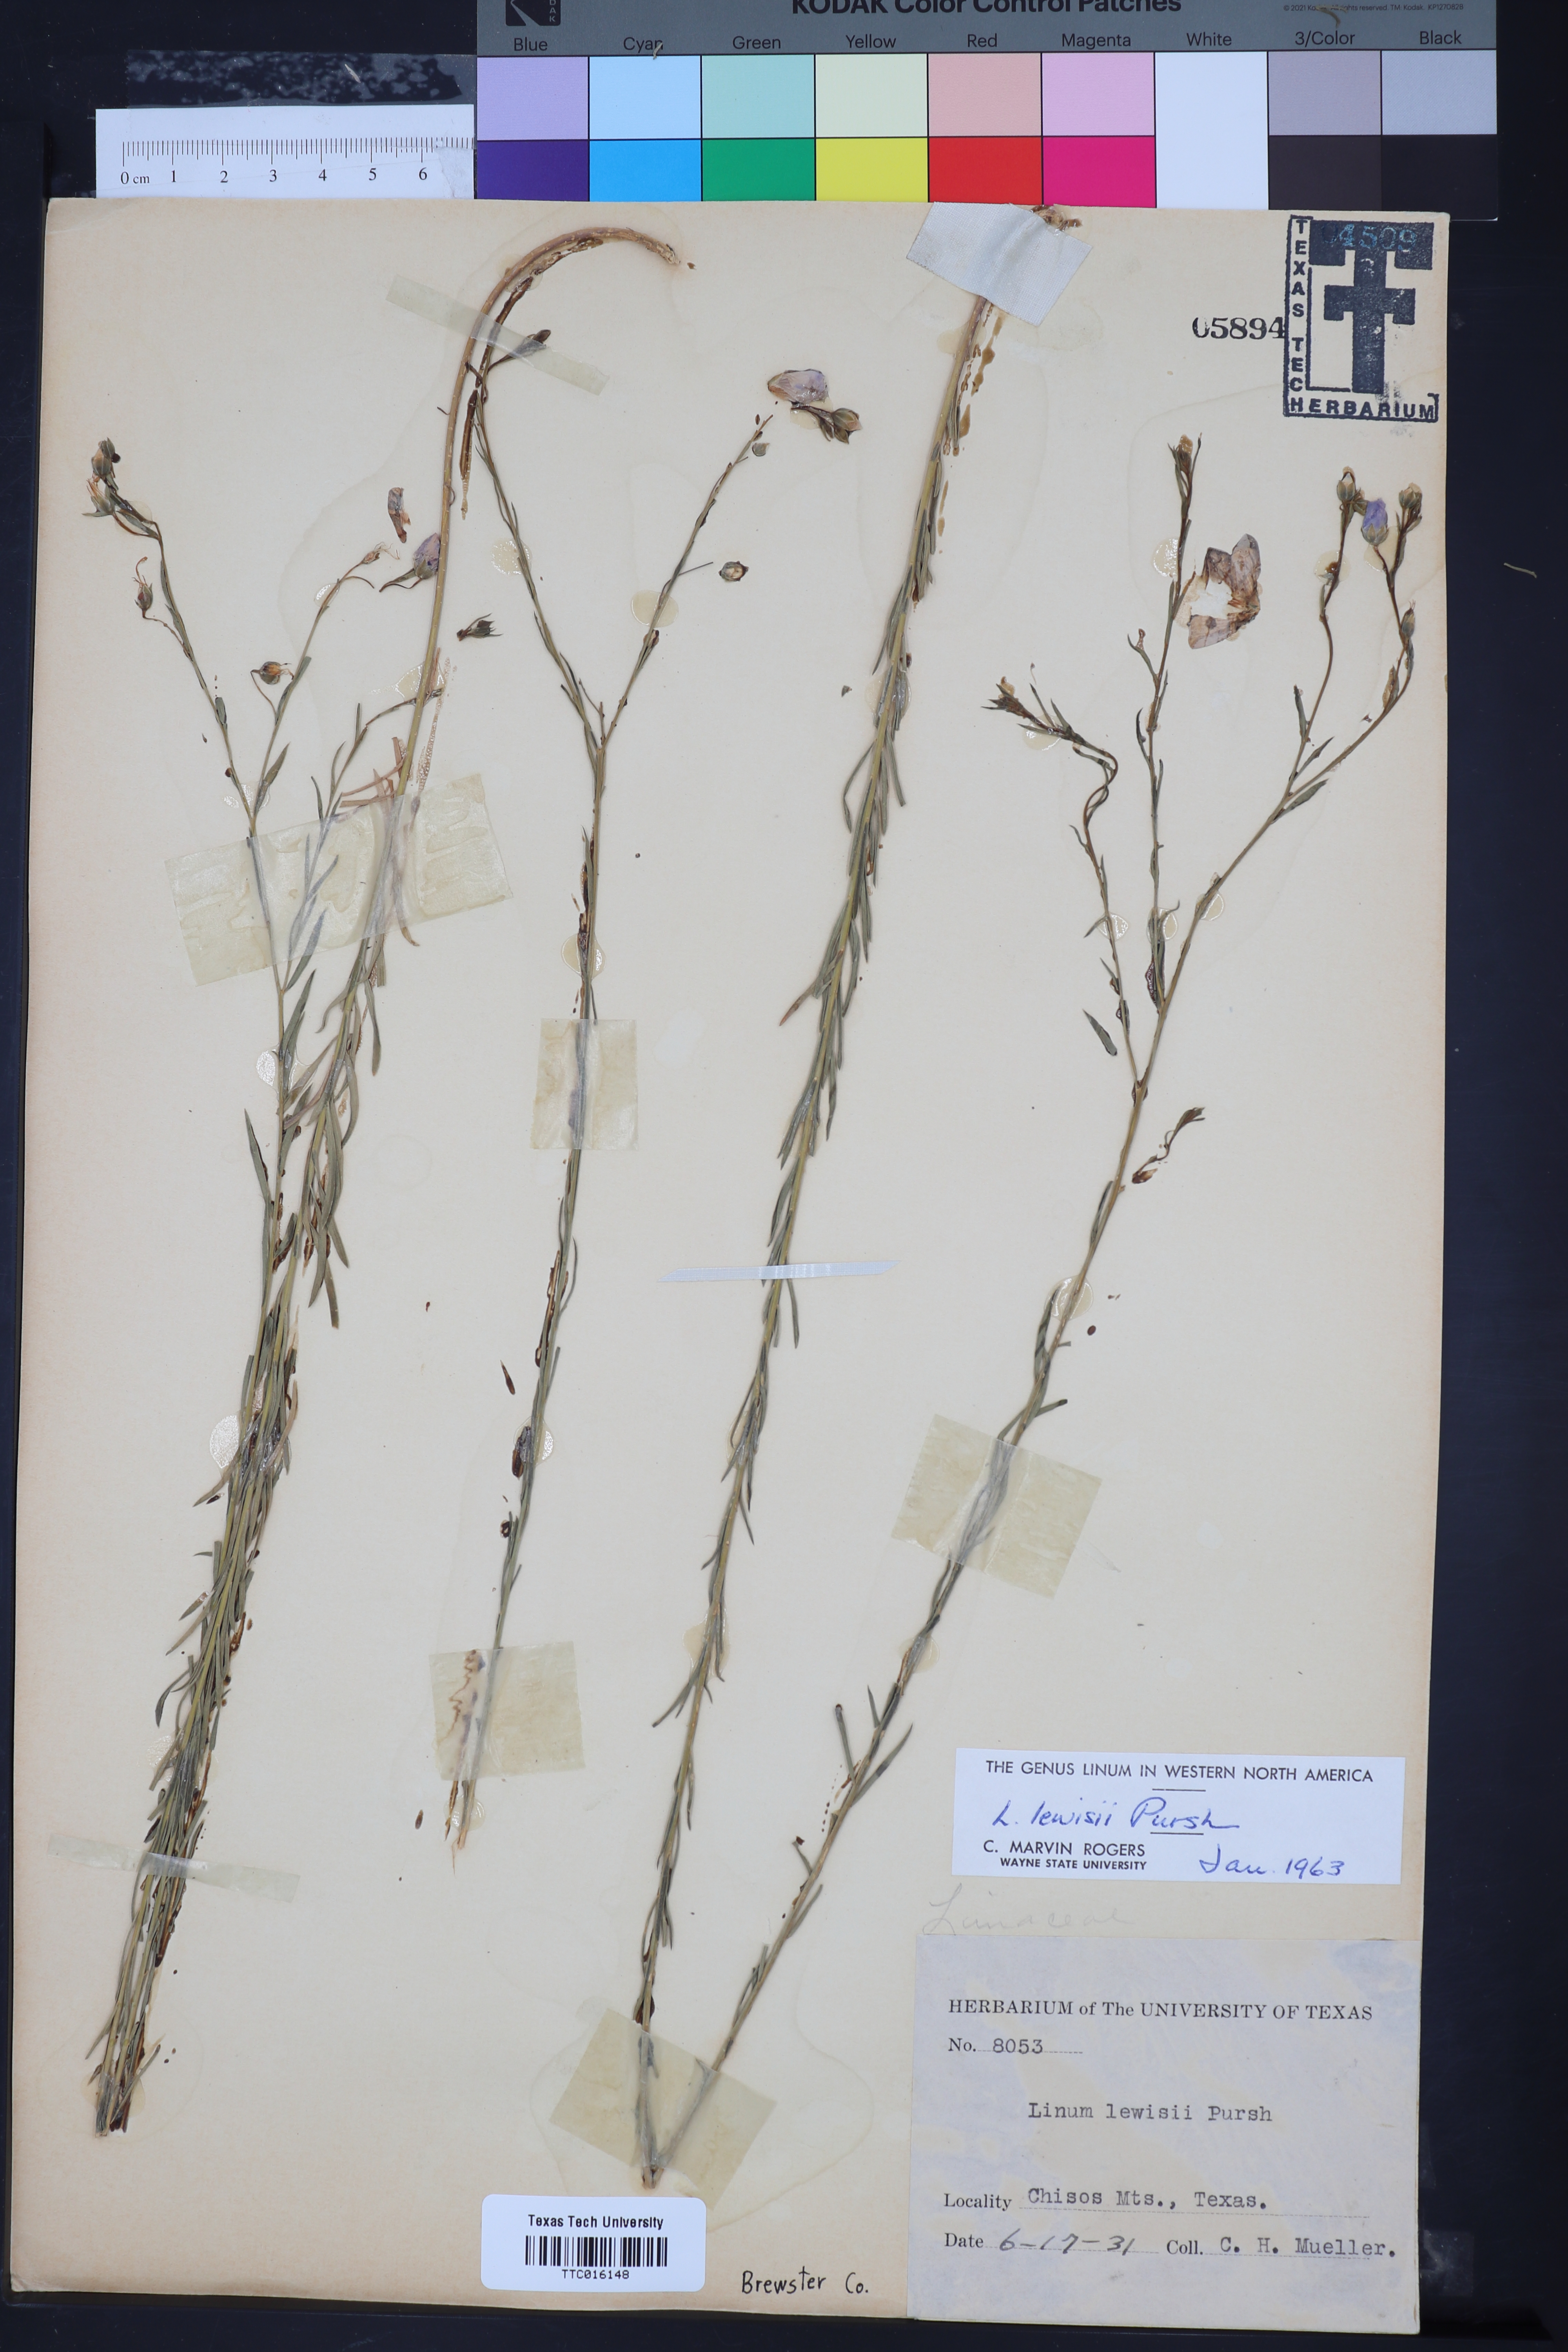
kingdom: Plantae
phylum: Tracheophyta
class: Magnoliopsida
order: Malpighiales
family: Linaceae
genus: Linum
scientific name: Linum lewisii
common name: Prairie flax
